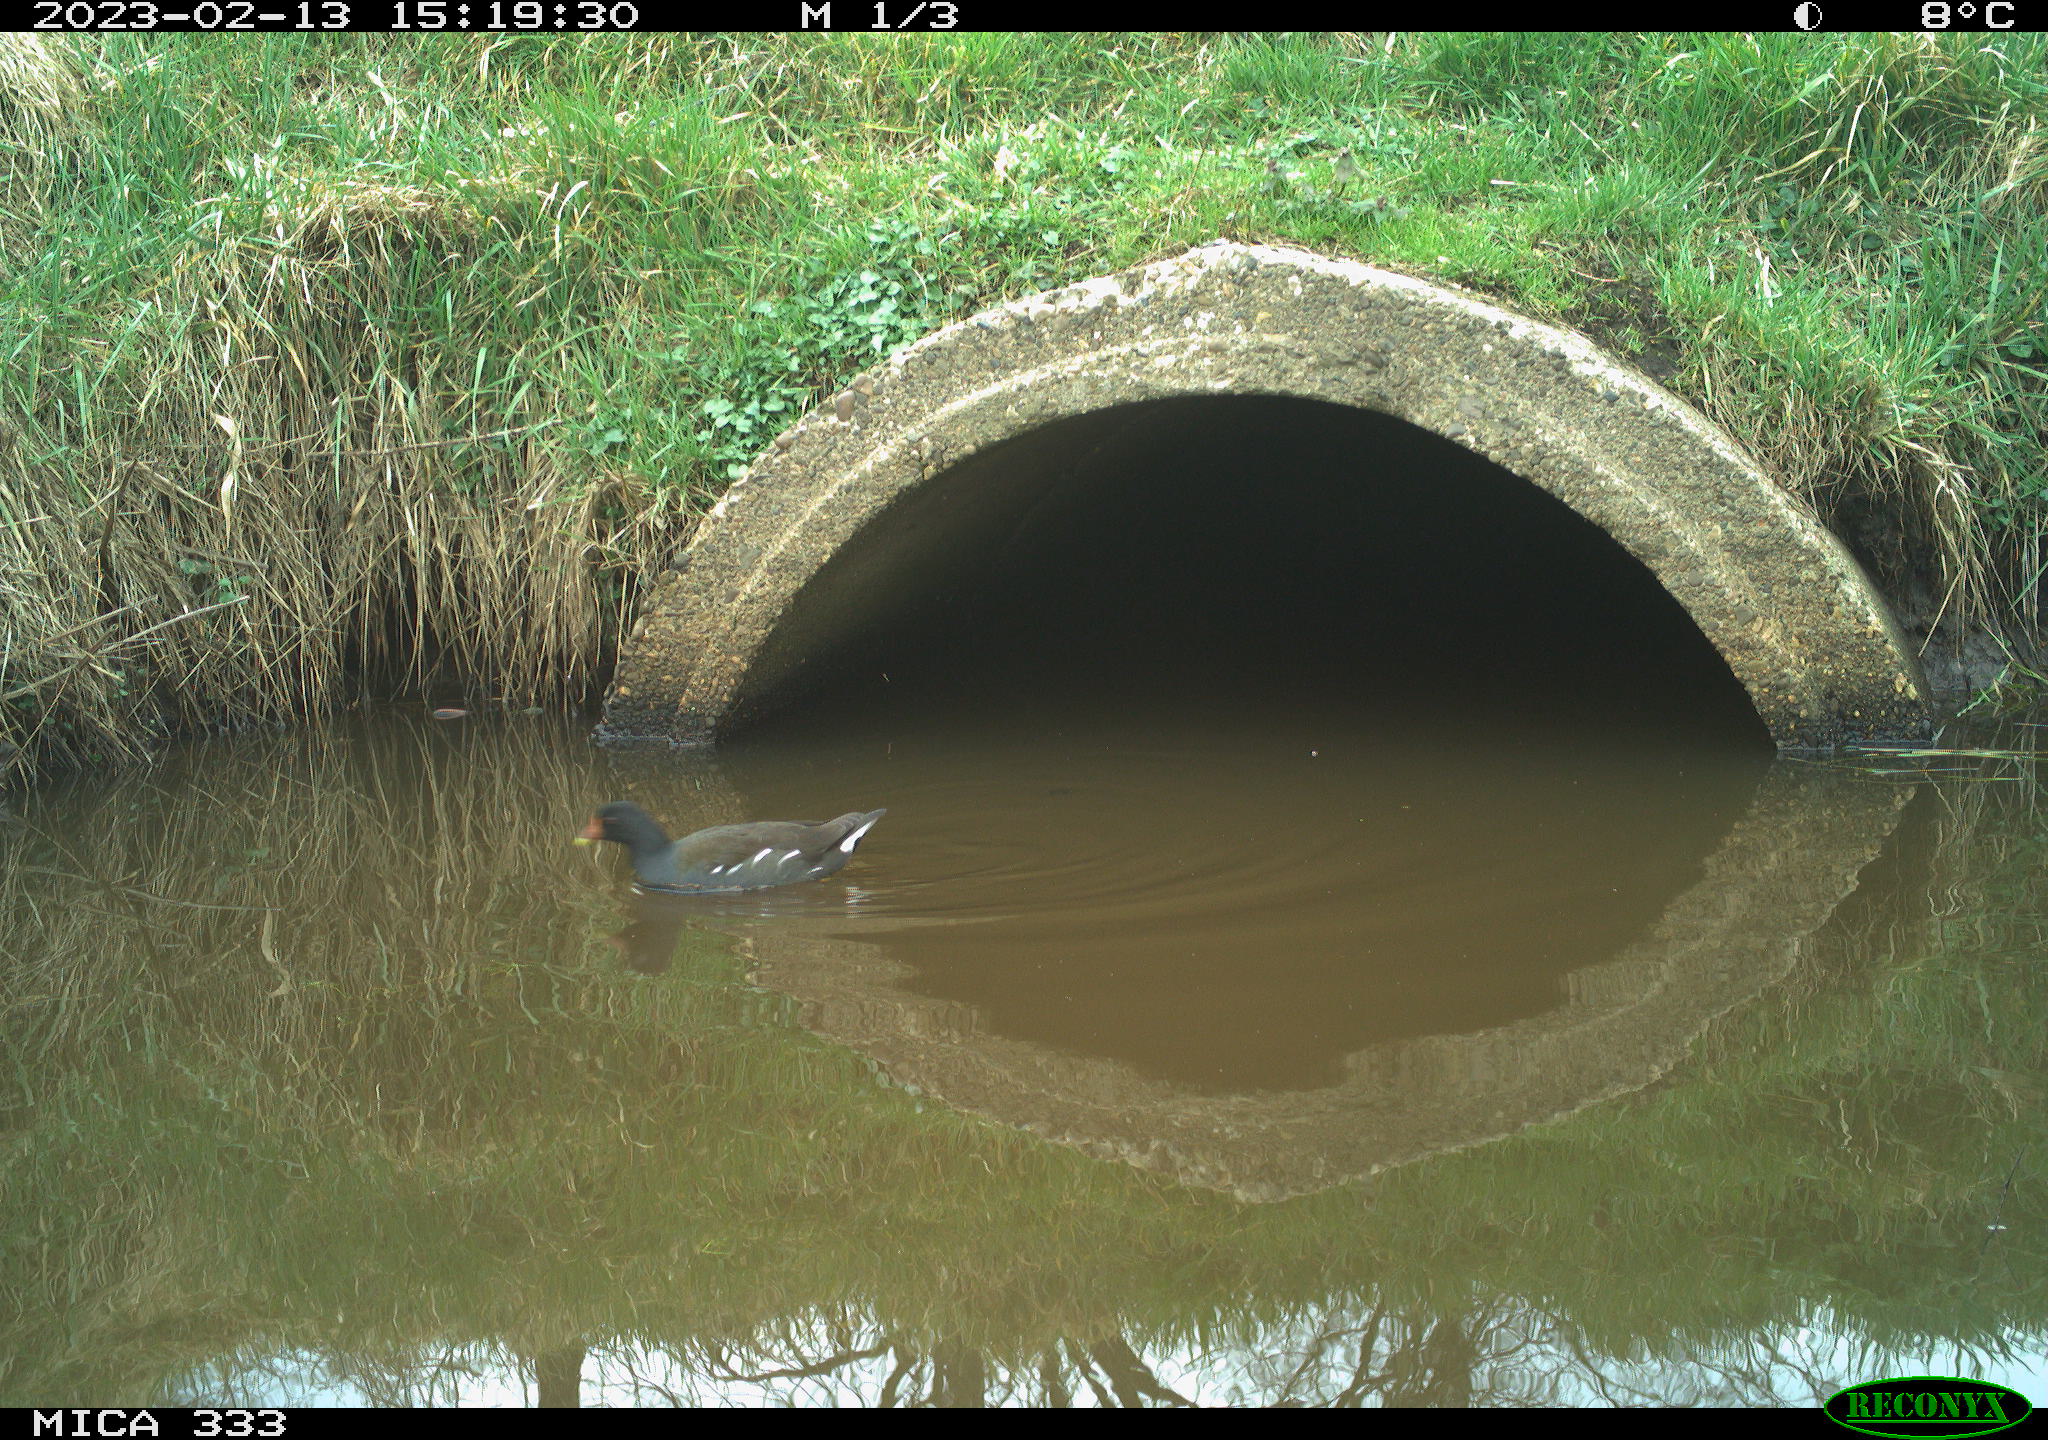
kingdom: Animalia
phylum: Chordata
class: Aves
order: Gruiformes
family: Rallidae
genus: Gallinula
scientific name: Gallinula chloropus
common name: Common moorhen
